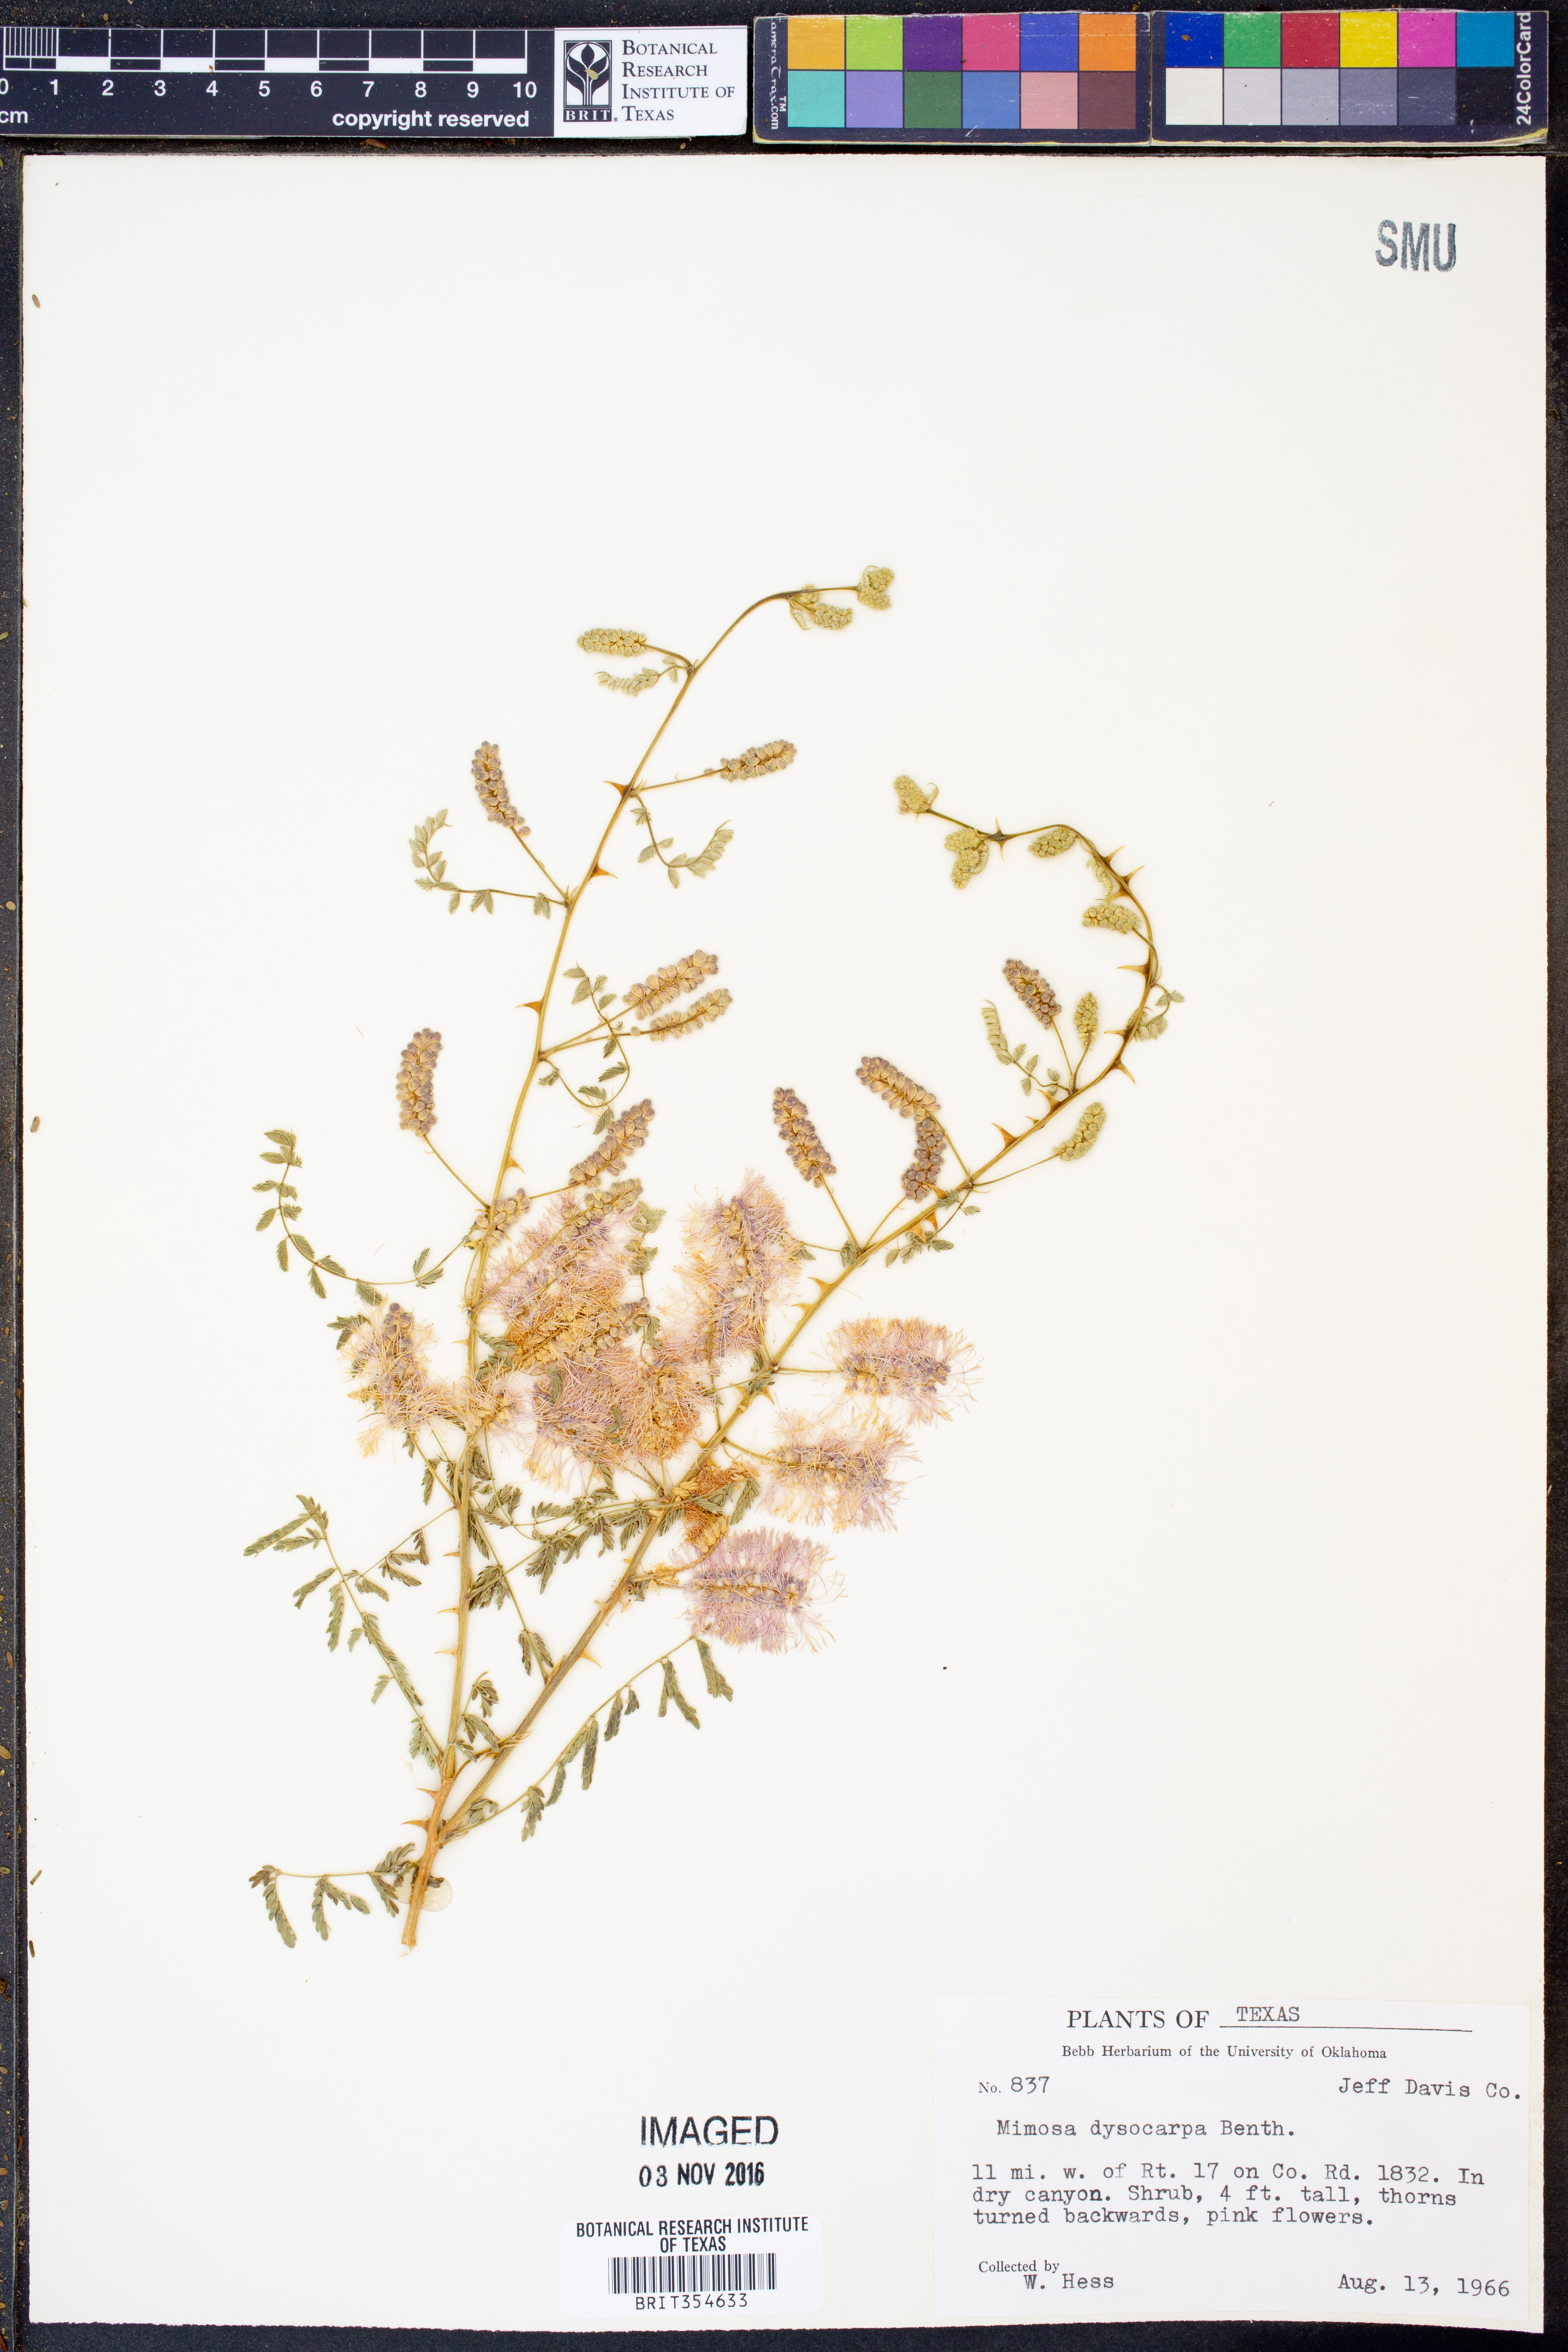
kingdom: Plantae
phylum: Tracheophyta
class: Magnoliopsida
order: Fabales
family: Fabaceae
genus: Mimosa
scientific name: Mimosa dysocarpa
